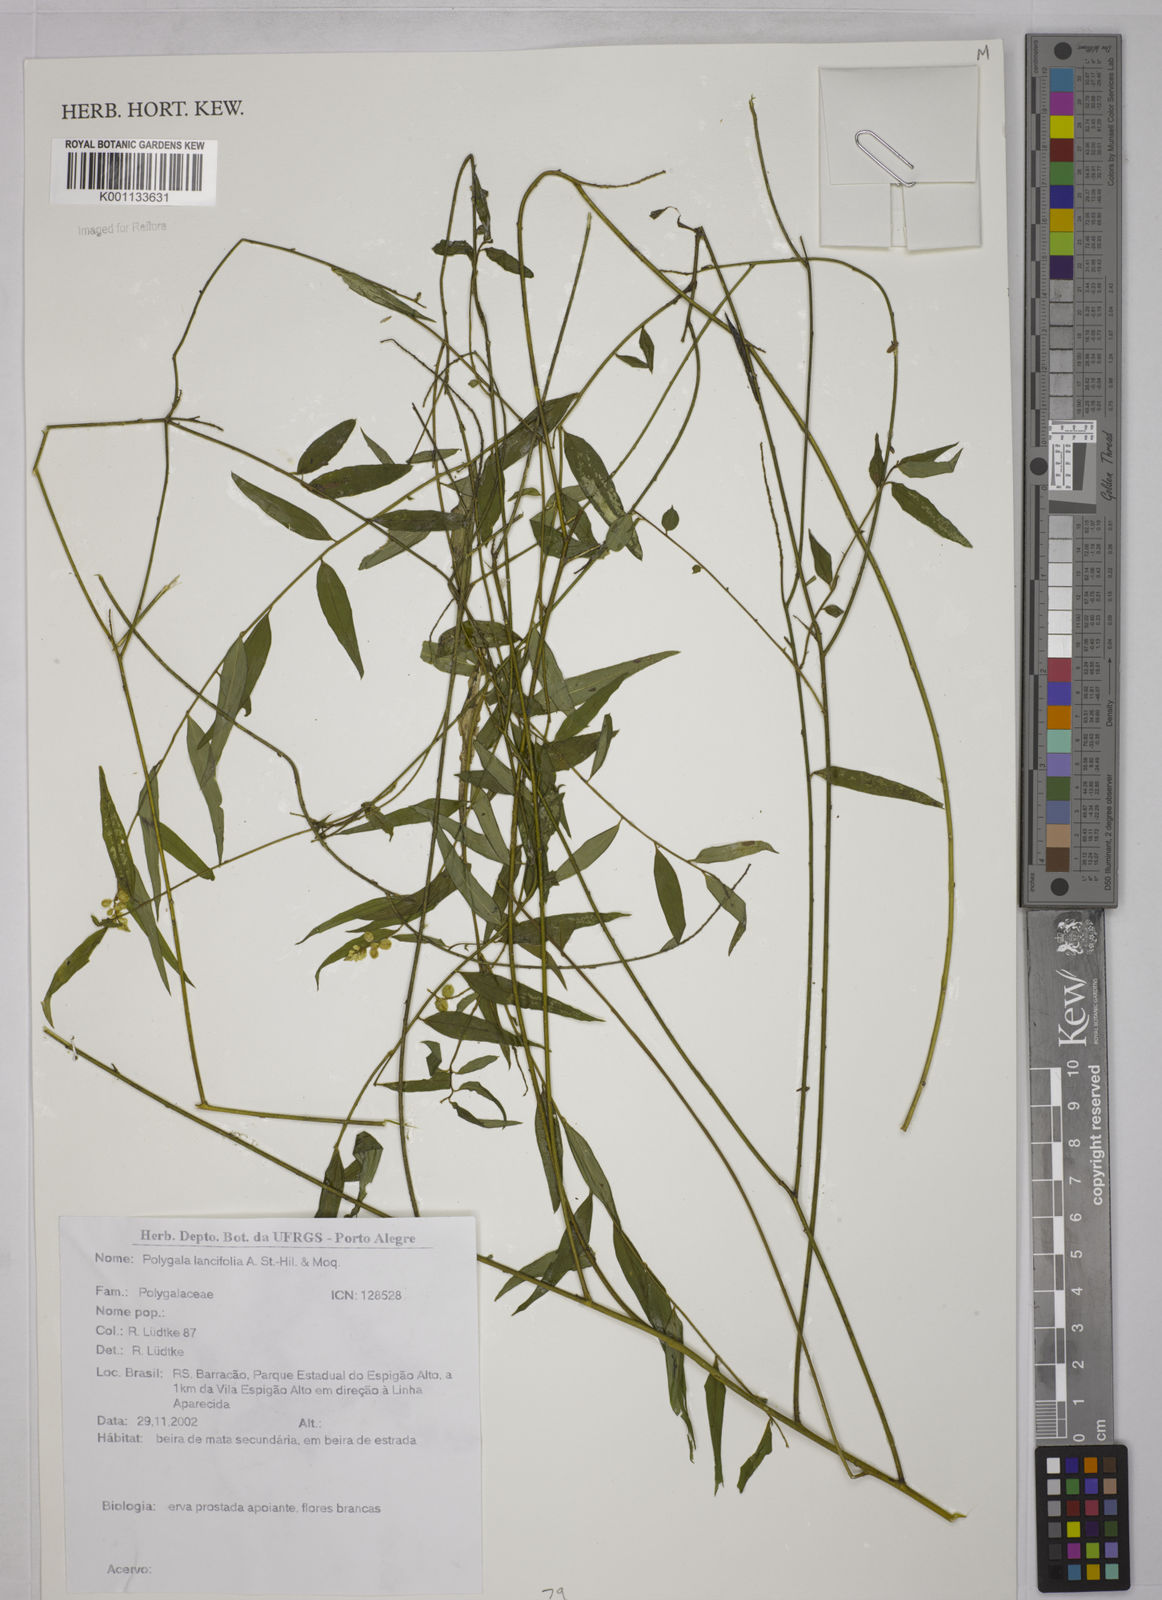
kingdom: Plantae
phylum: Tracheophyta
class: Magnoliopsida
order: Fabales
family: Polygalaceae
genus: Polygala
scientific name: Polygala lancifolia
